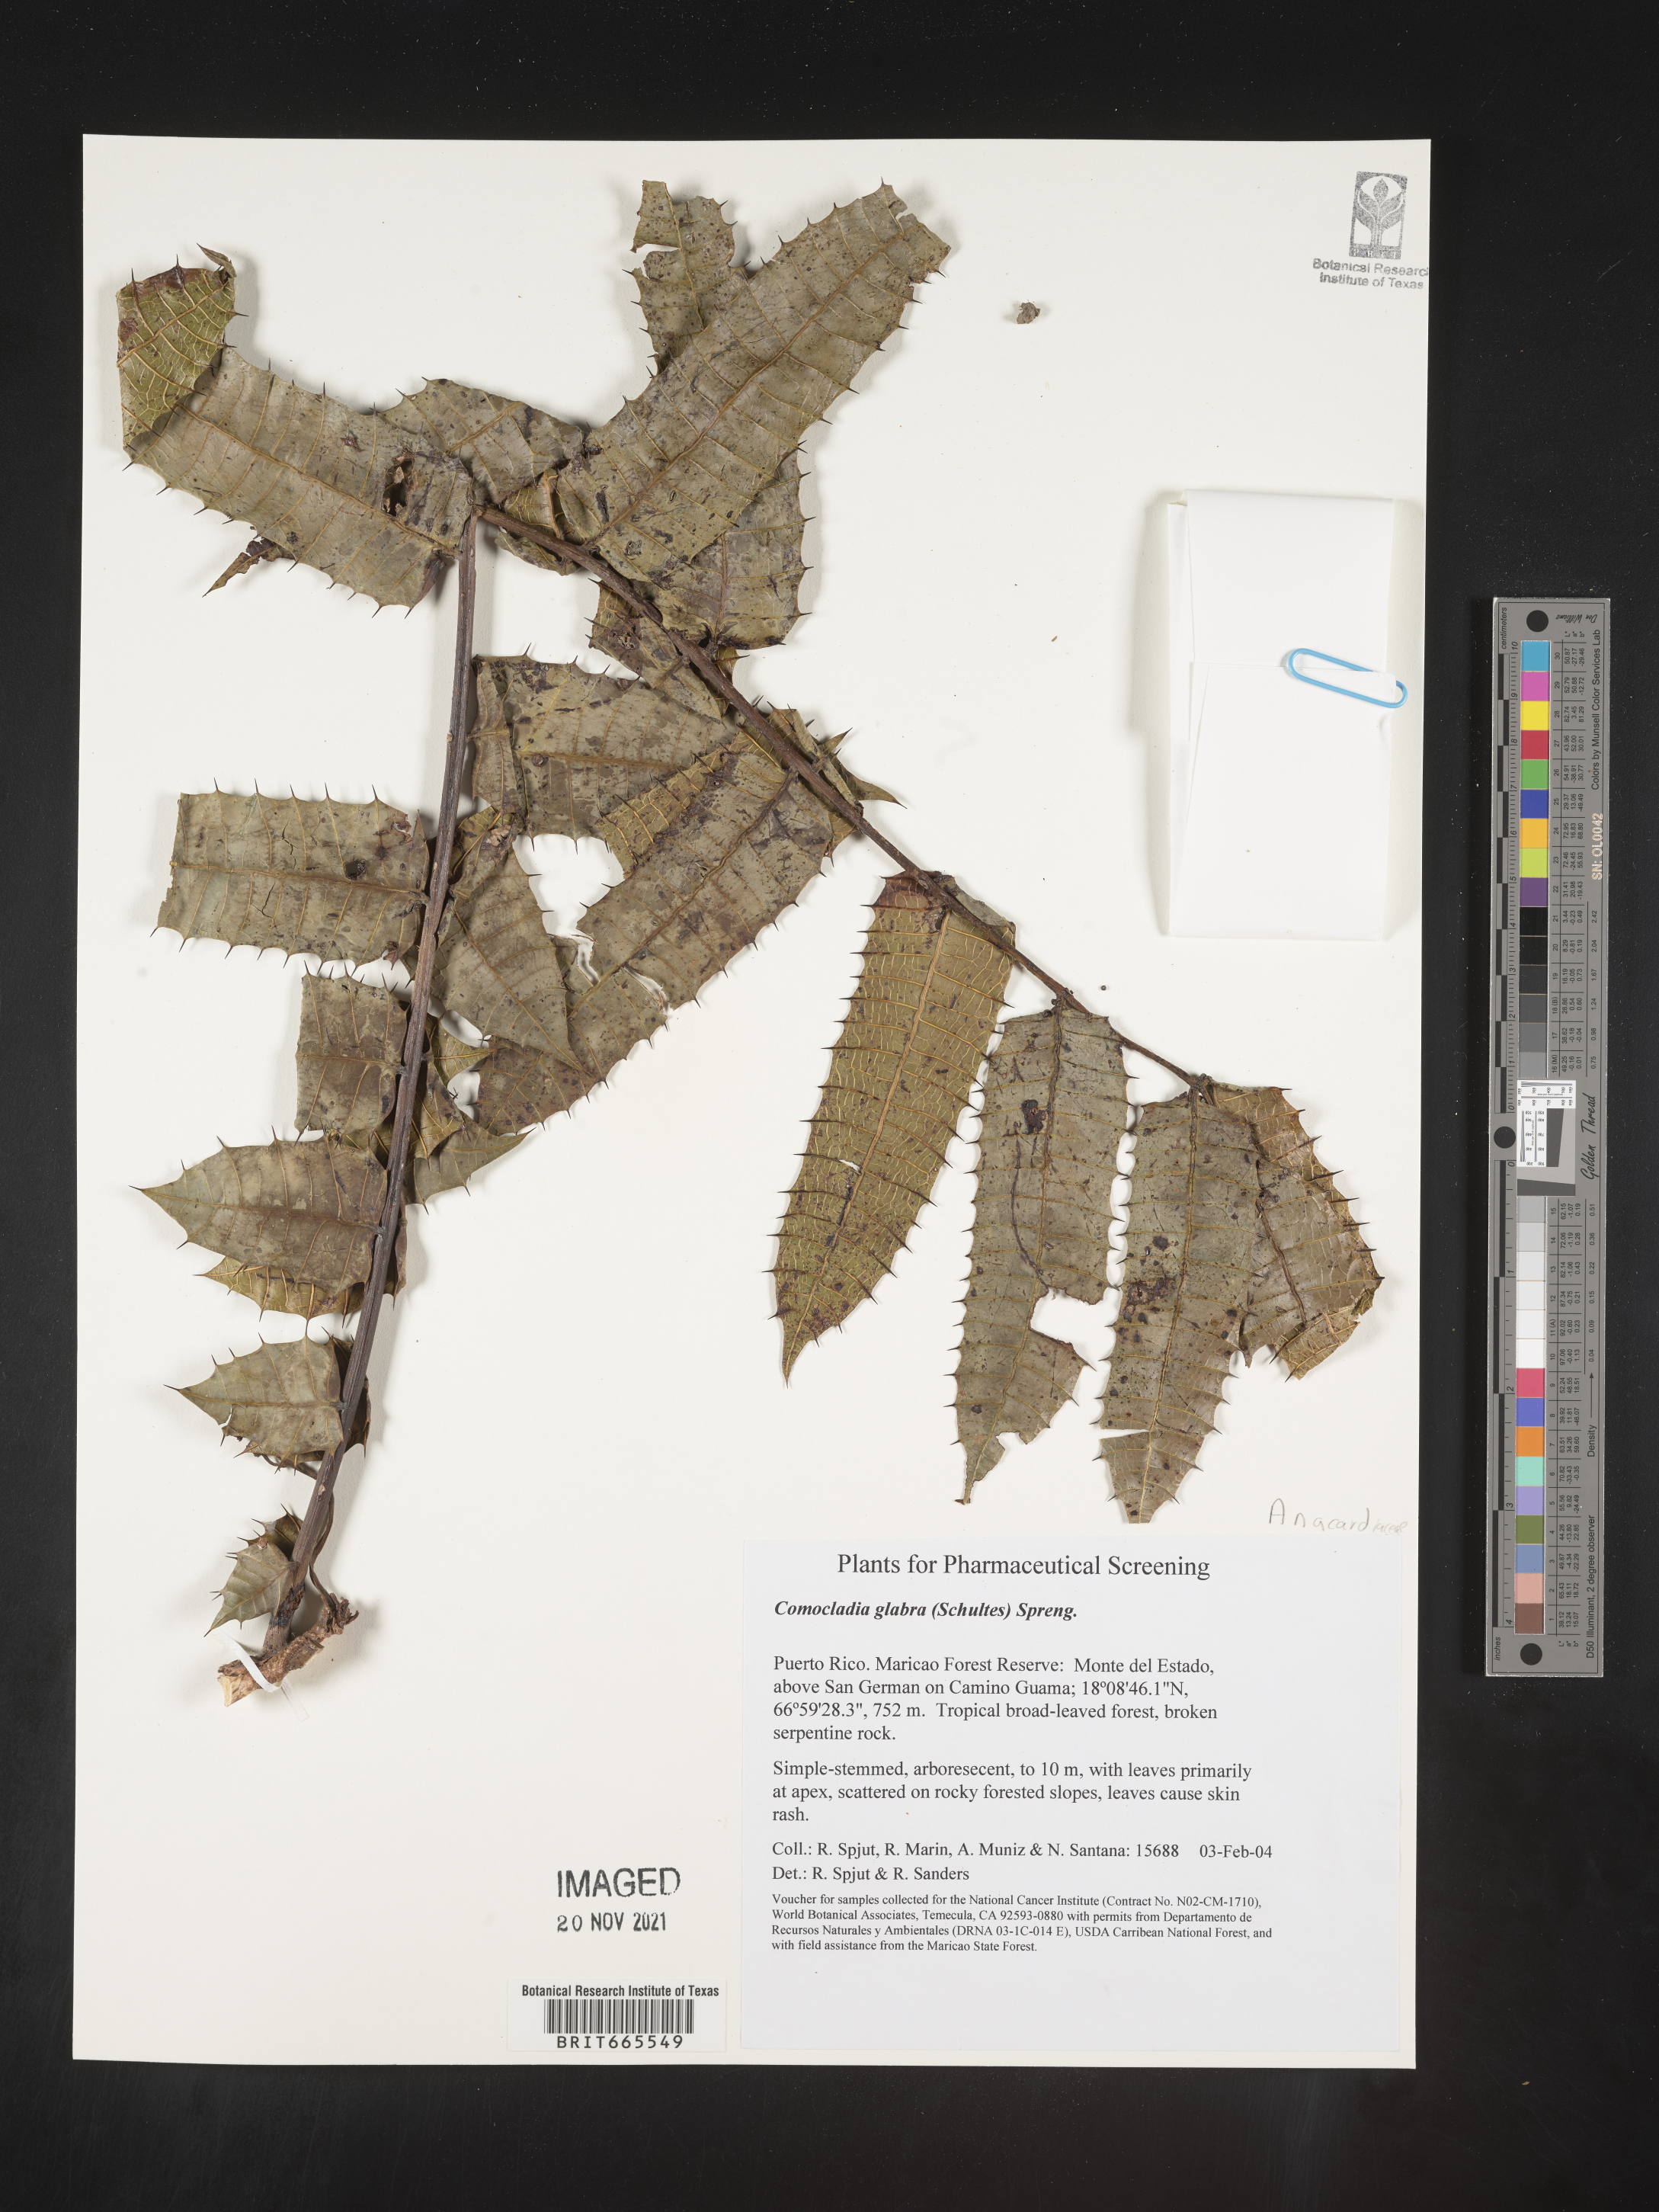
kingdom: Plantae
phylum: Tracheophyta
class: Magnoliopsida
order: Sapindales
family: Anacardiaceae
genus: Comocladia
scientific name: Comocladia
